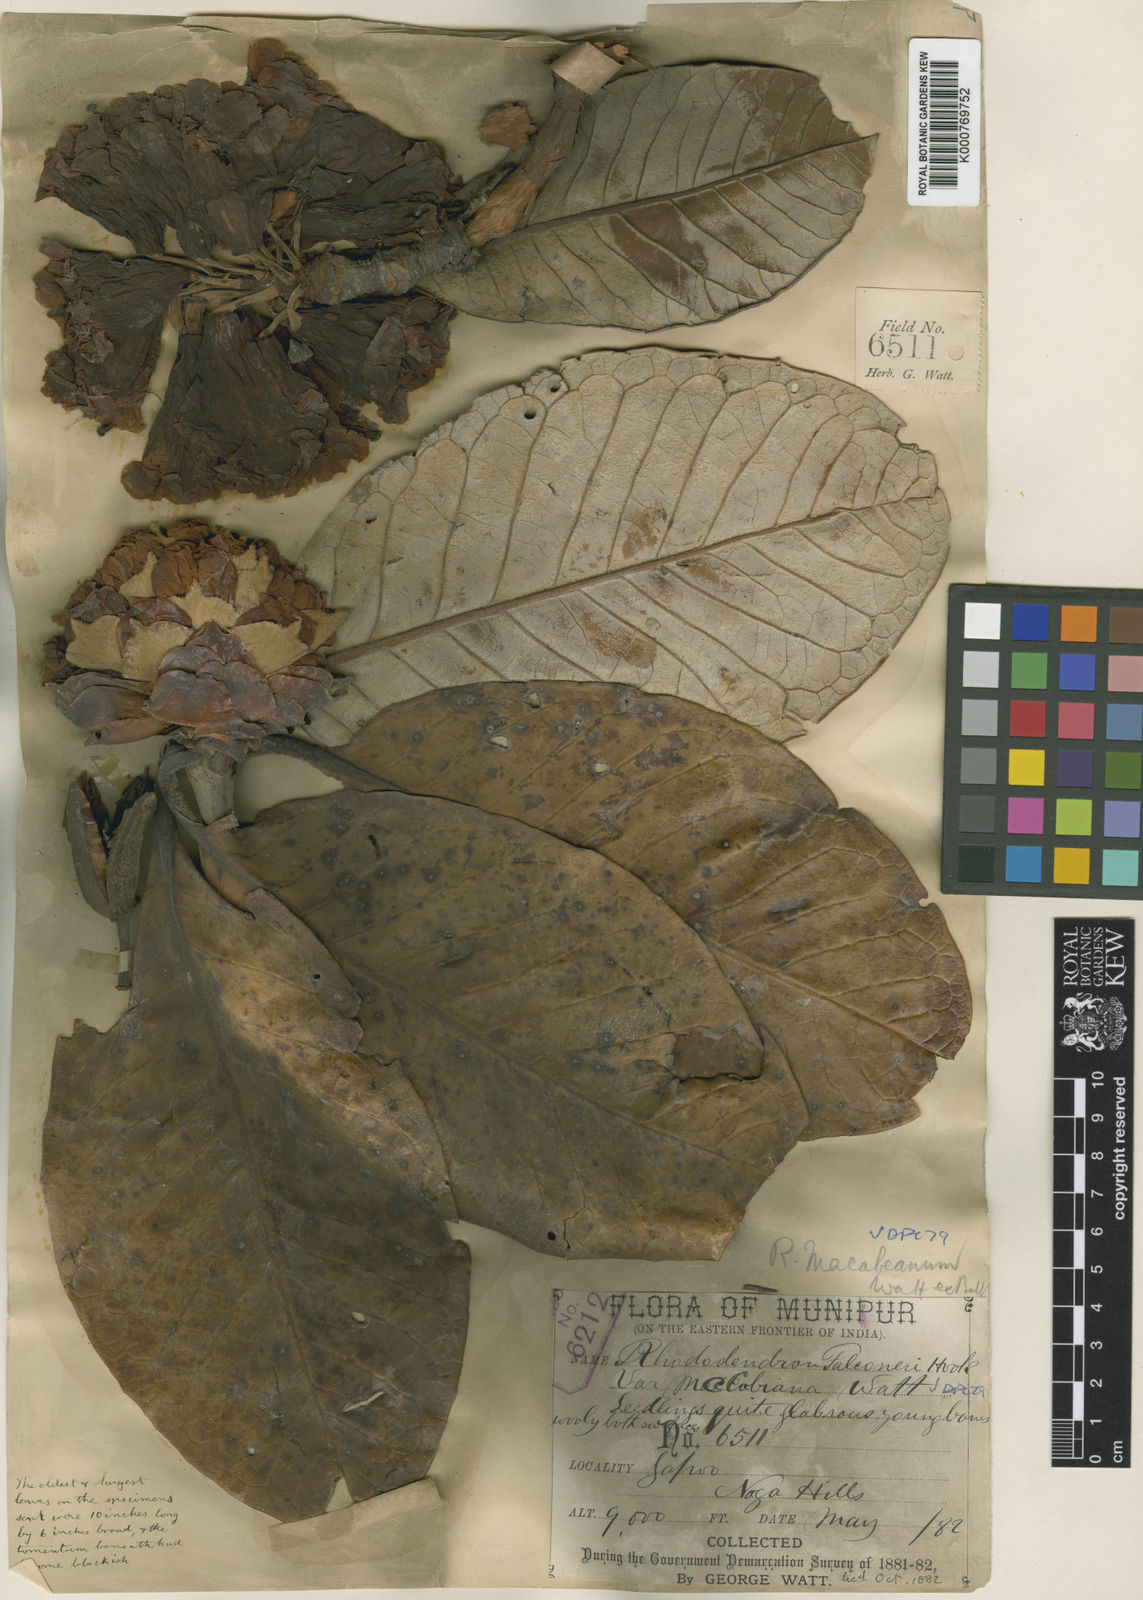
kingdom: Plantae
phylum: Tracheophyta
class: Magnoliopsida
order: Ericales
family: Ericaceae
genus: Rhododendron
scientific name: Rhododendron macabeanum
